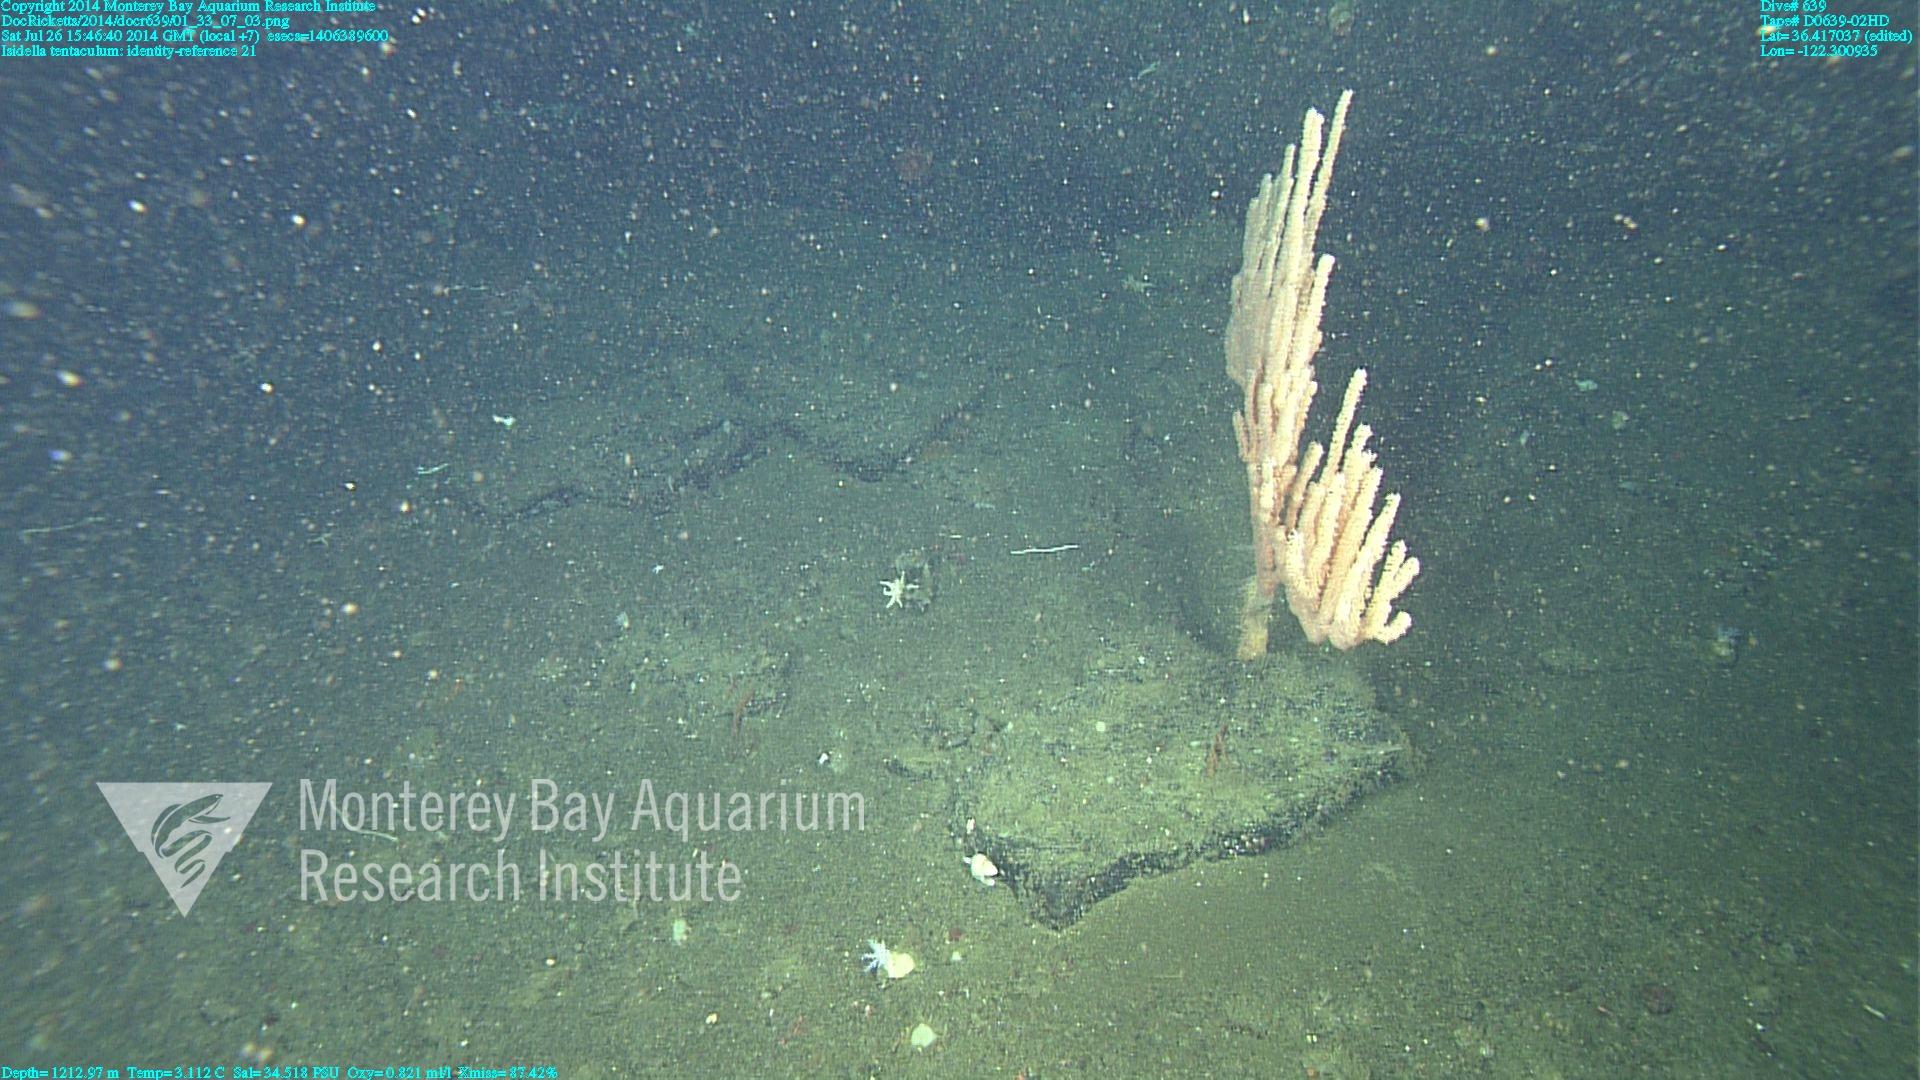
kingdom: Animalia
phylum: Cnidaria
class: Anthozoa
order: Scleralcyonacea
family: Keratoisididae
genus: Isidella
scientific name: Isidella tentaculum
